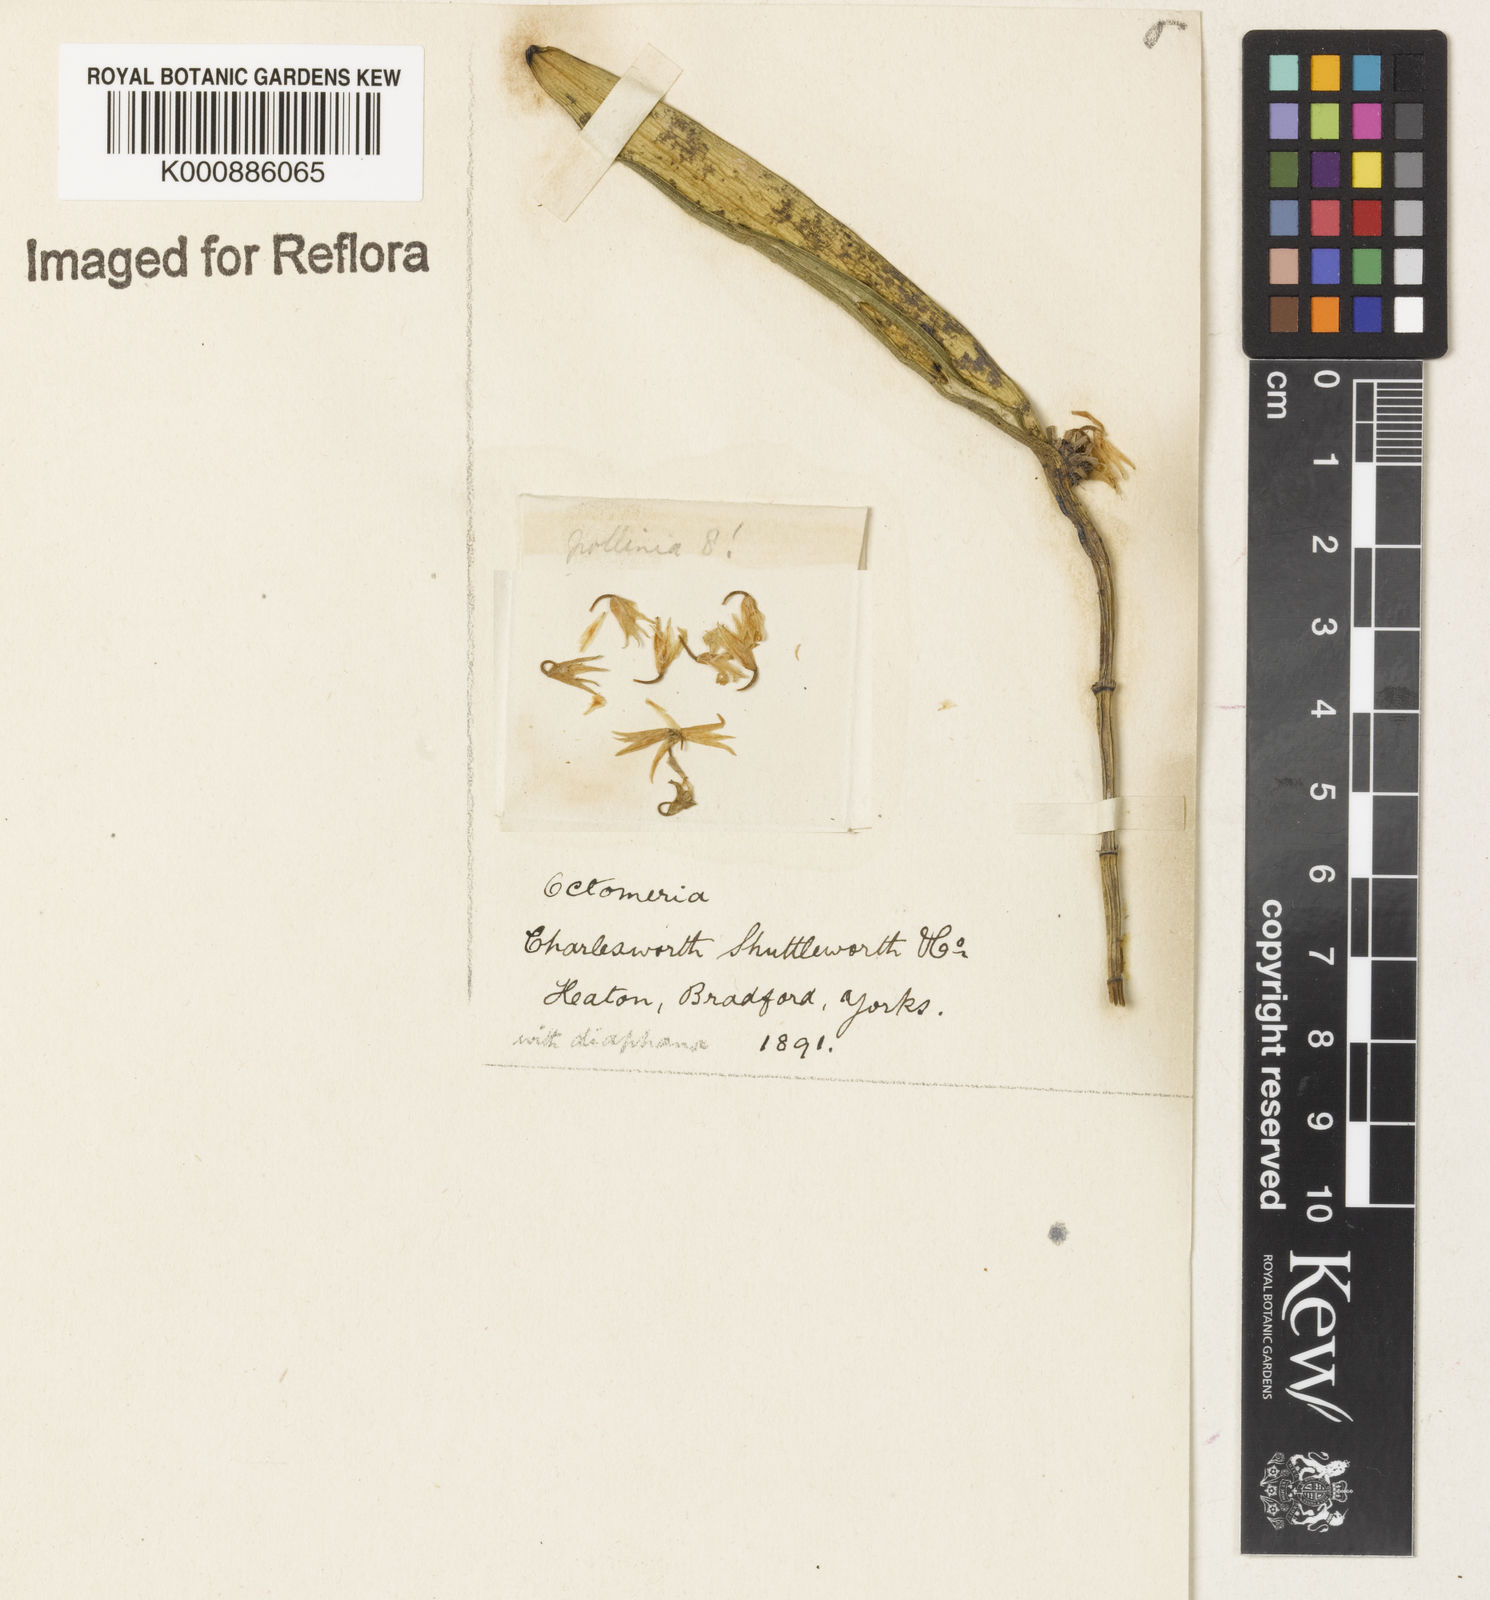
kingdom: Plantae
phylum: Tracheophyta
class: Liliopsida
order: Asparagales
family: Orchidaceae
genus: Octomeria
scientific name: Octomeria
